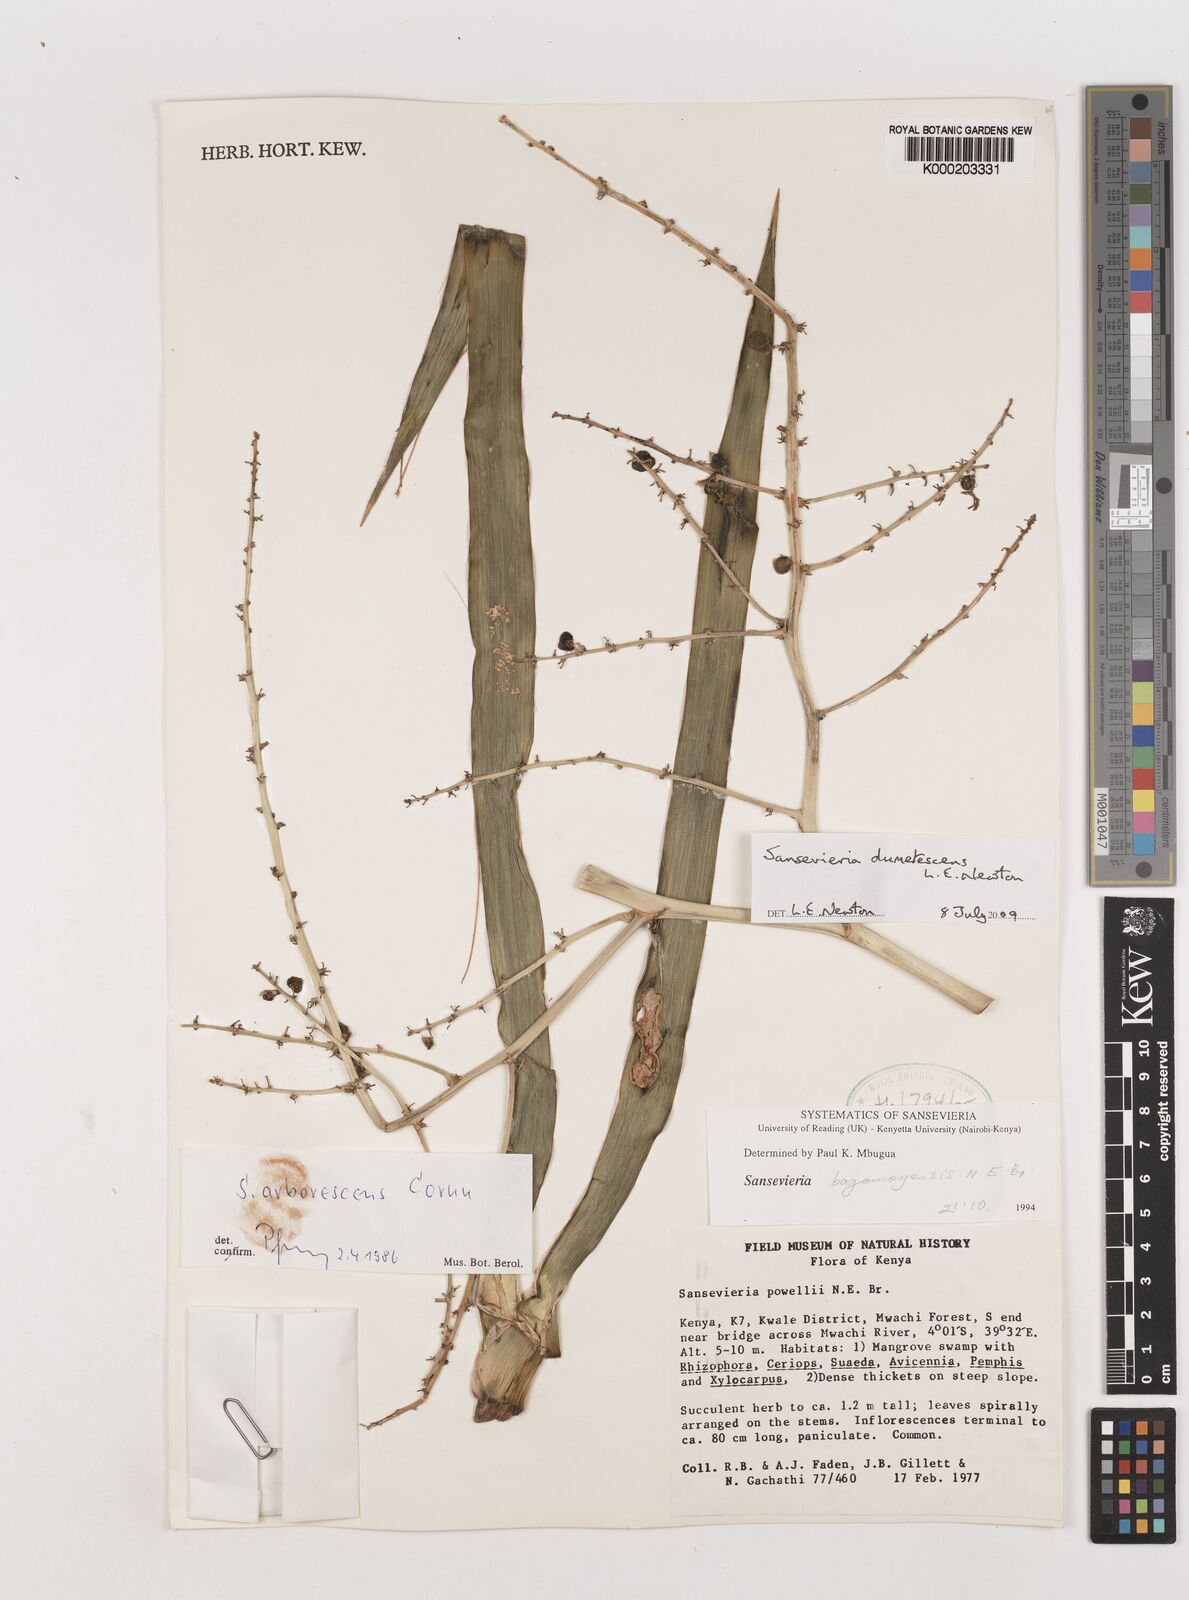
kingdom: Plantae
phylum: Tracheophyta
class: Liliopsida
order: Asparagales
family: Asparagaceae
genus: Dracaena
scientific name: Dracaena
